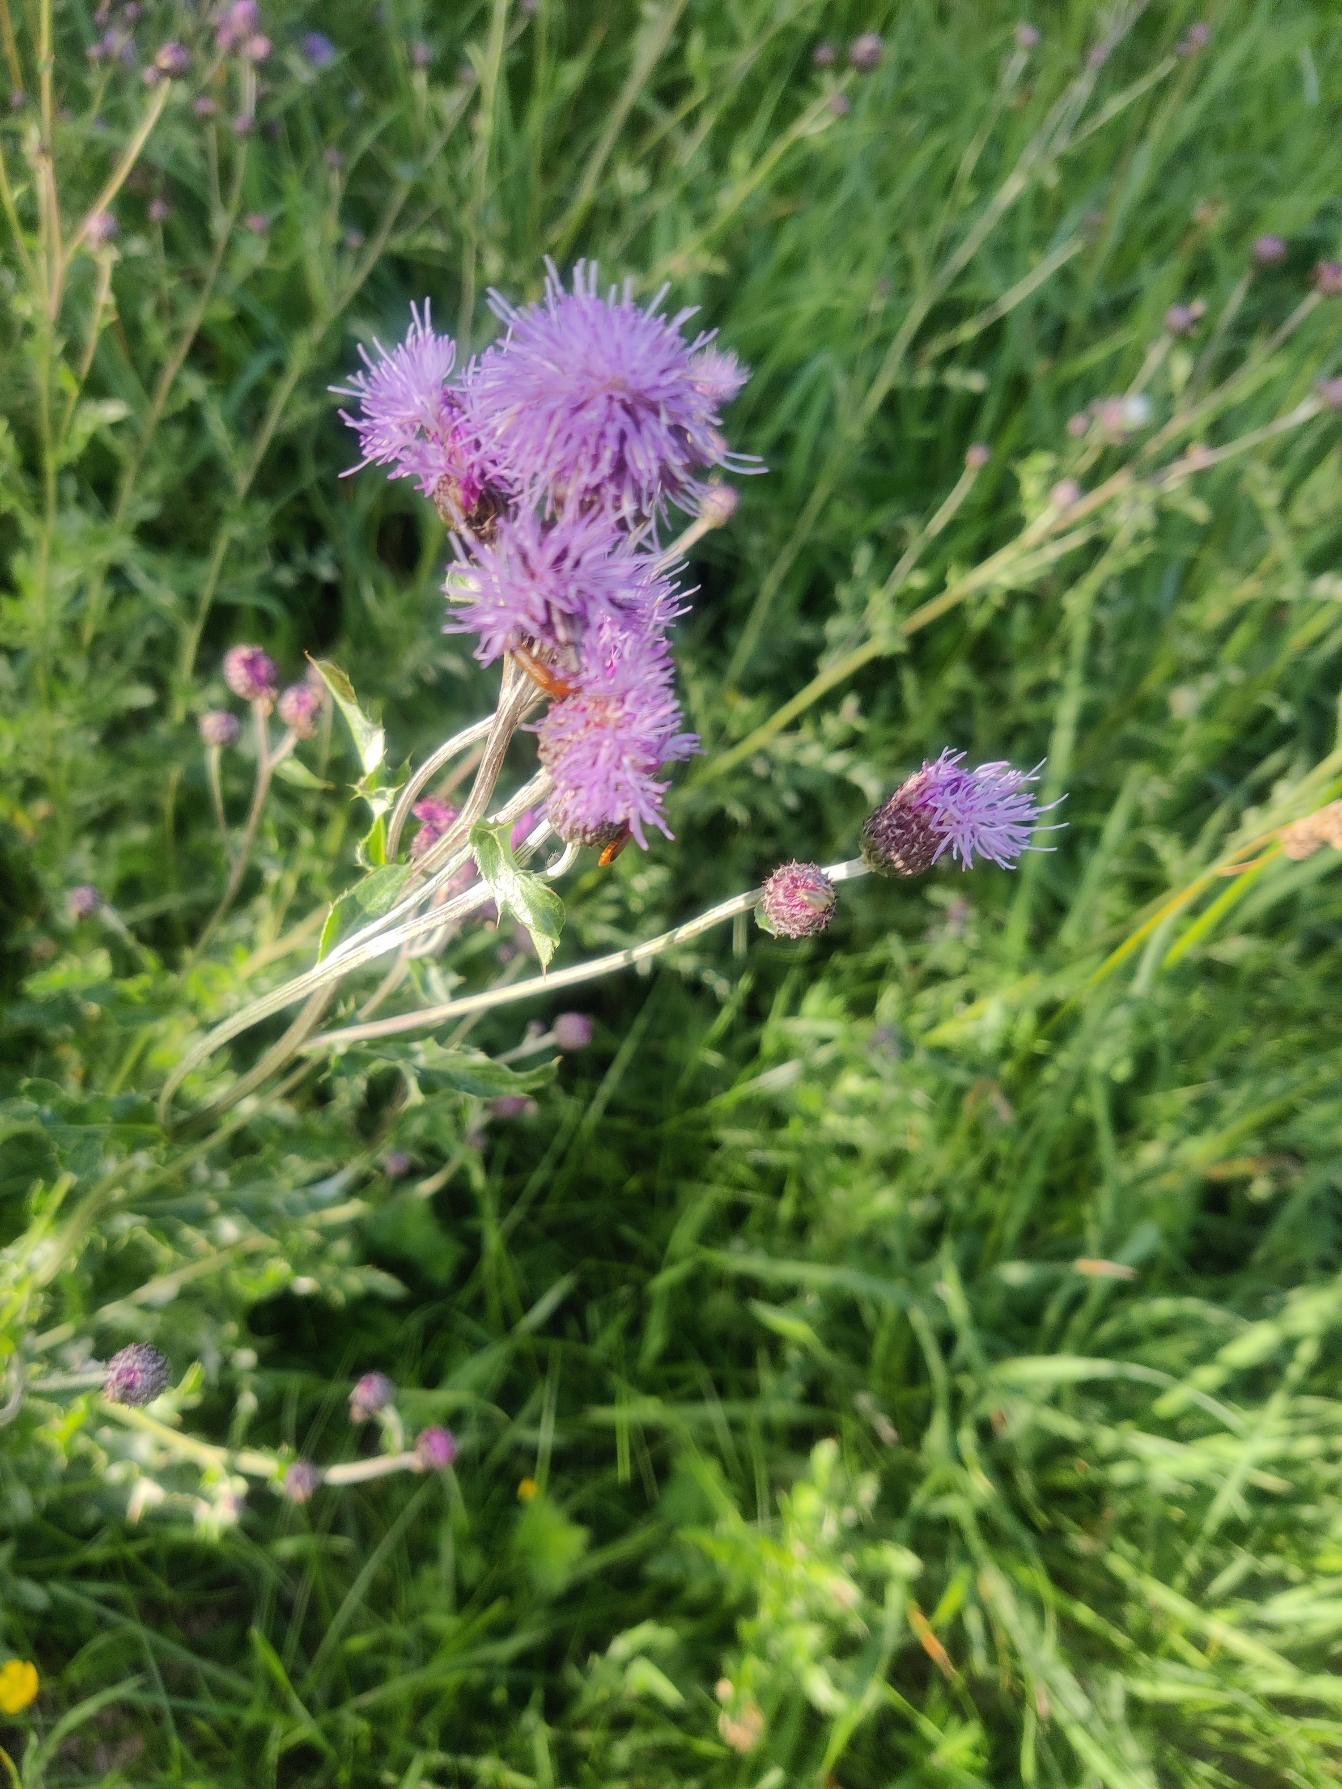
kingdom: Plantae
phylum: Tracheophyta
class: Magnoliopsida
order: Asterales
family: Asteraceae
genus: Cirsium
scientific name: Cirsium arvense
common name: Ager-tidsel
